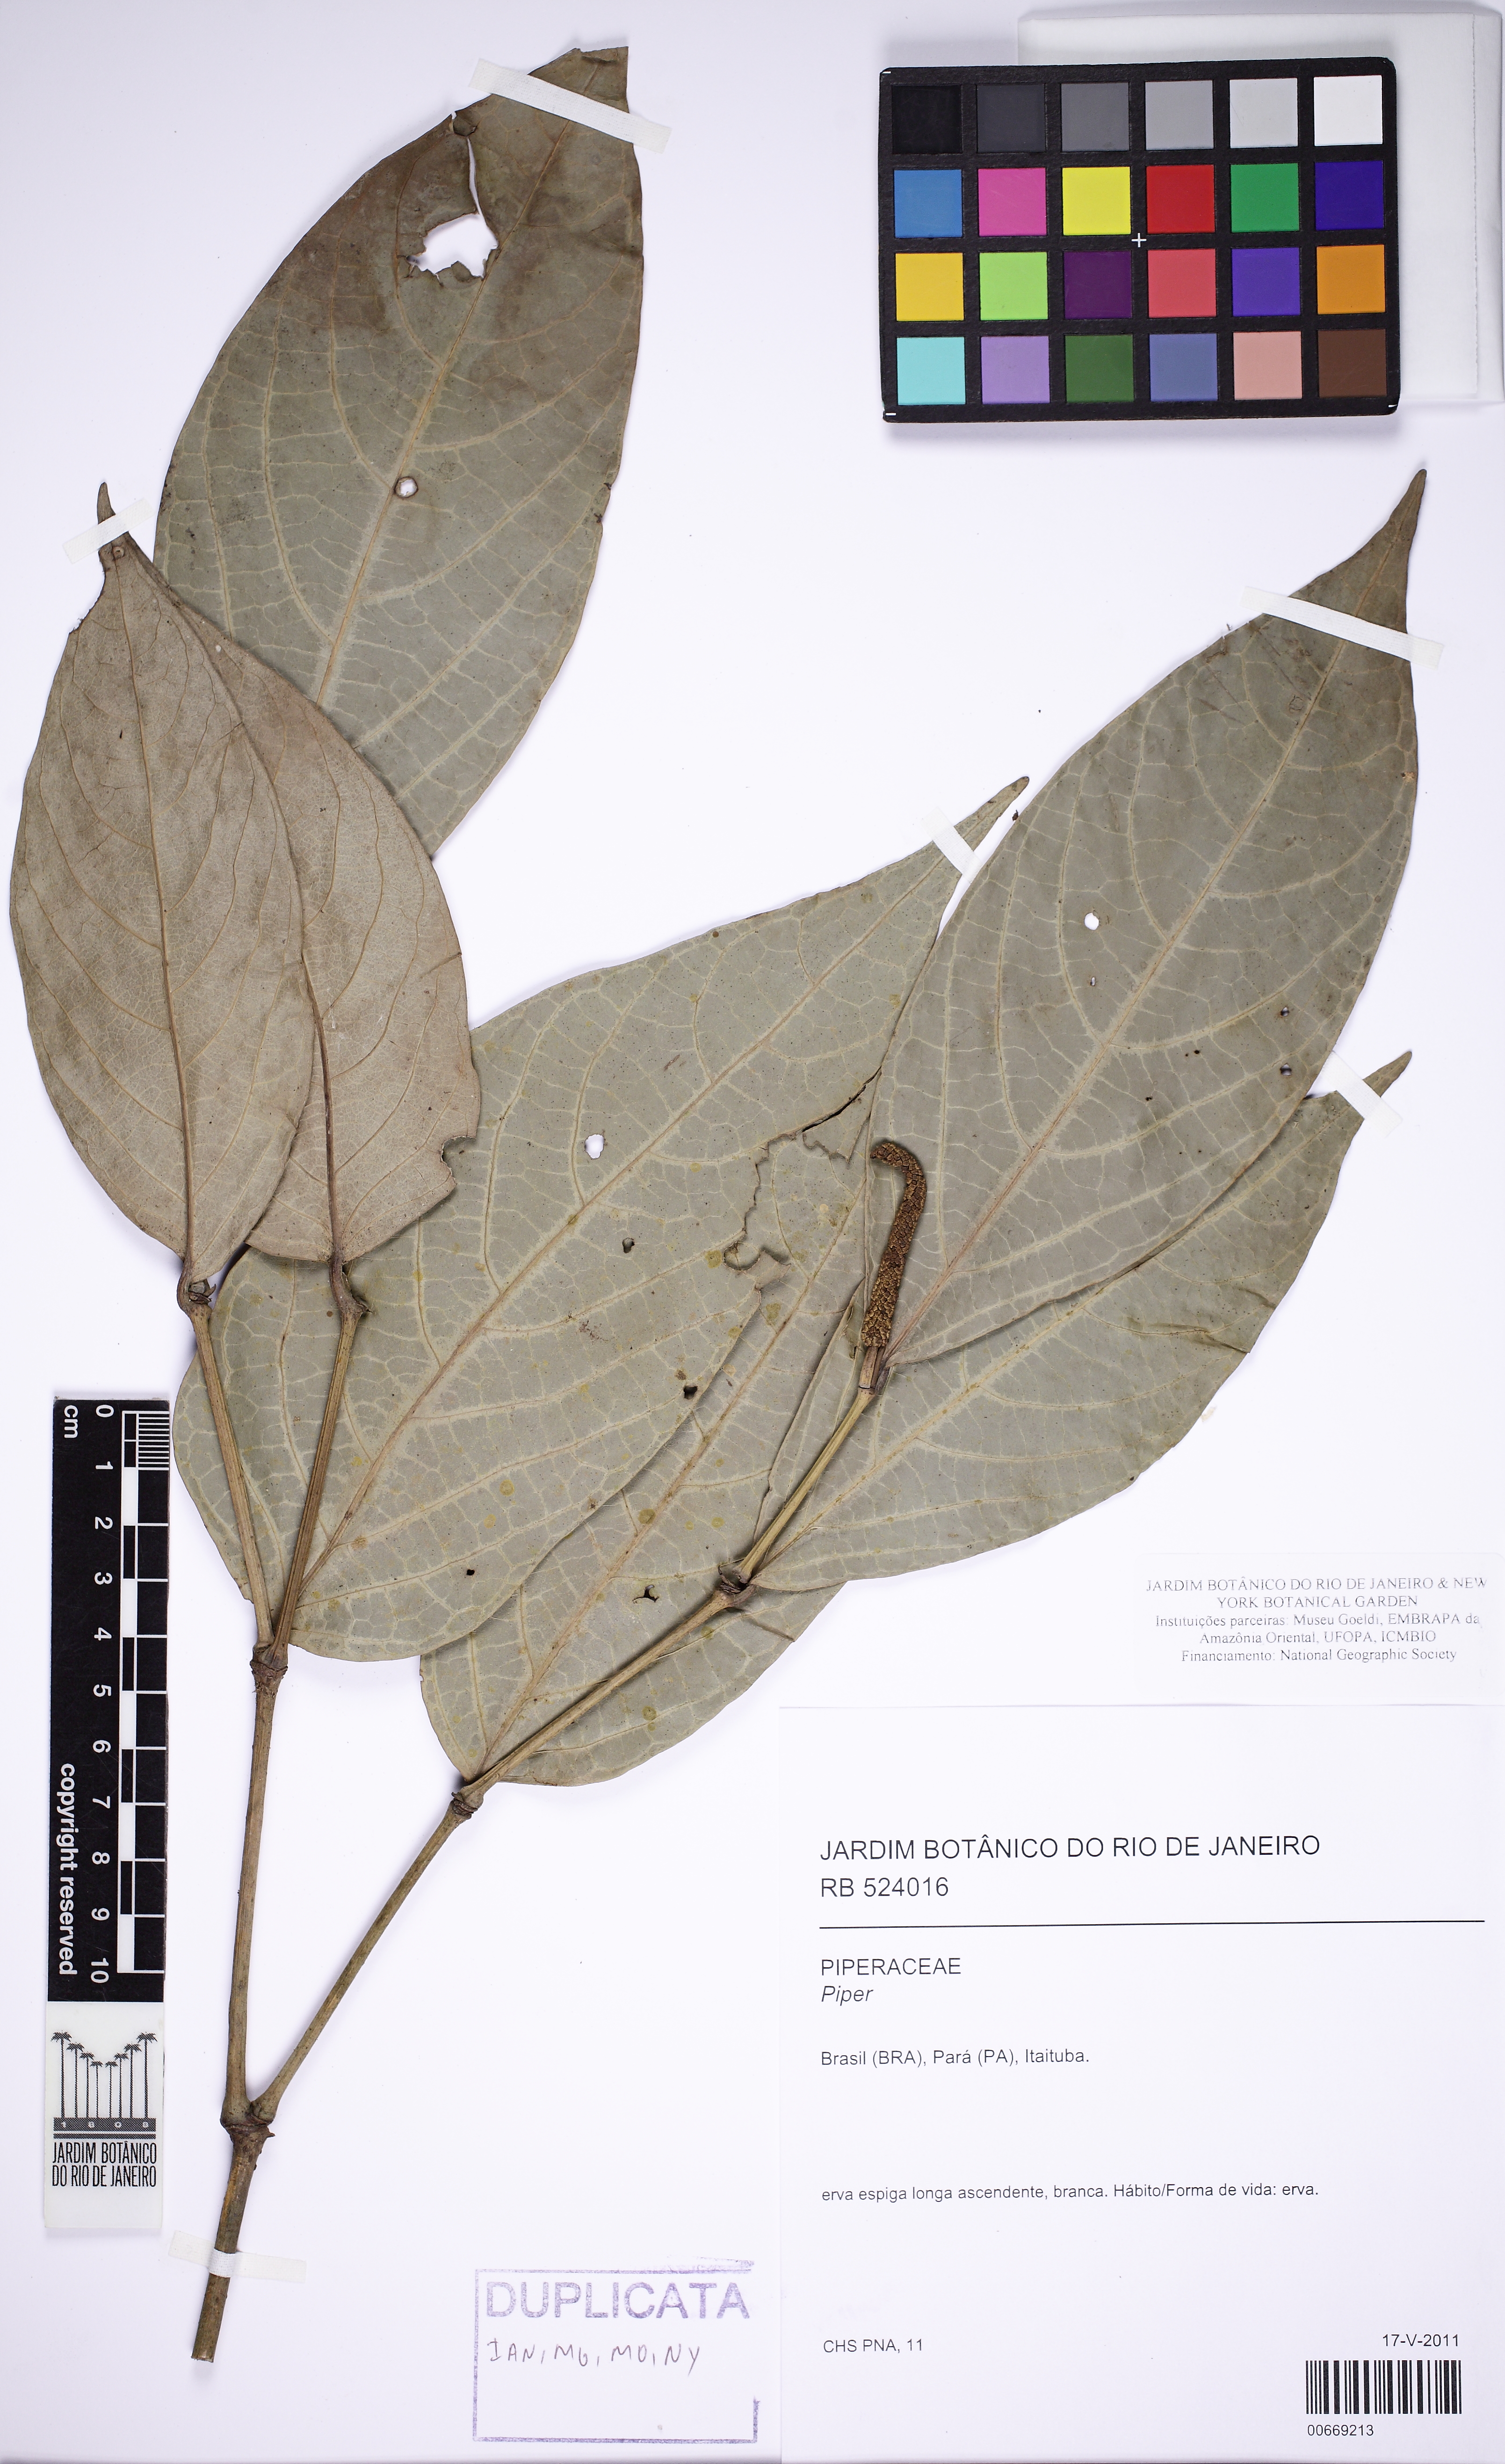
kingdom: Plantae
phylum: Tracheophyta
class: Magnoliopsida
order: Piperales
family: Piperaceae
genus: Piper
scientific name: Piper alatabaccum
